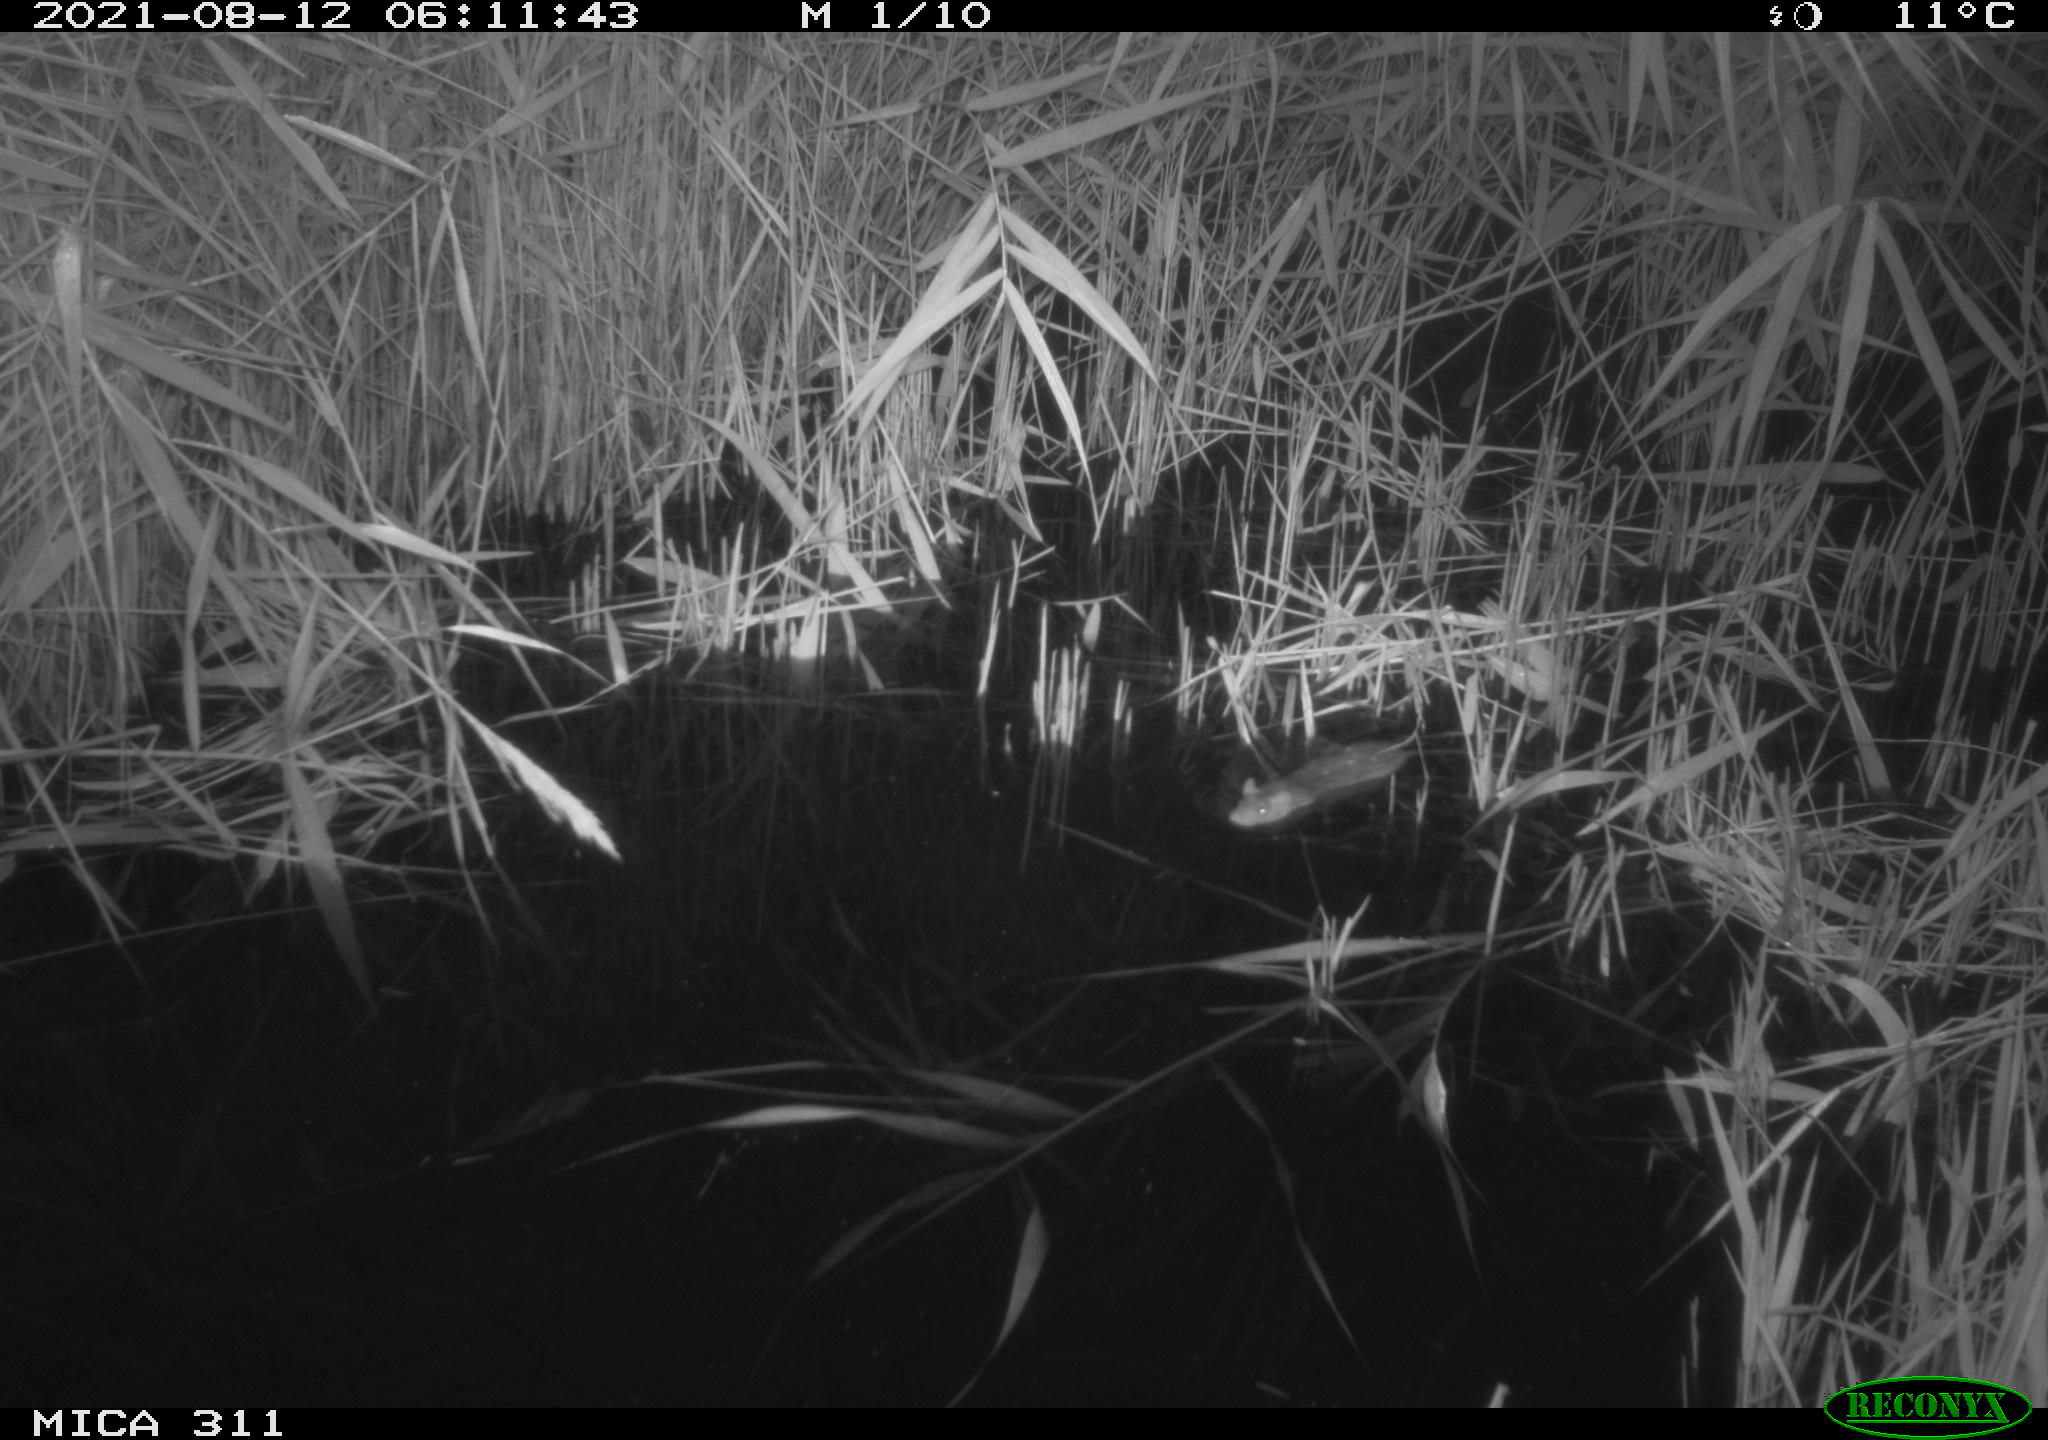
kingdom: Animalia
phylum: Chordata
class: Mammalia
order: Rodentia
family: Muridae
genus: Rattus
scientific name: Rattus norvegicus
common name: Brown rat
